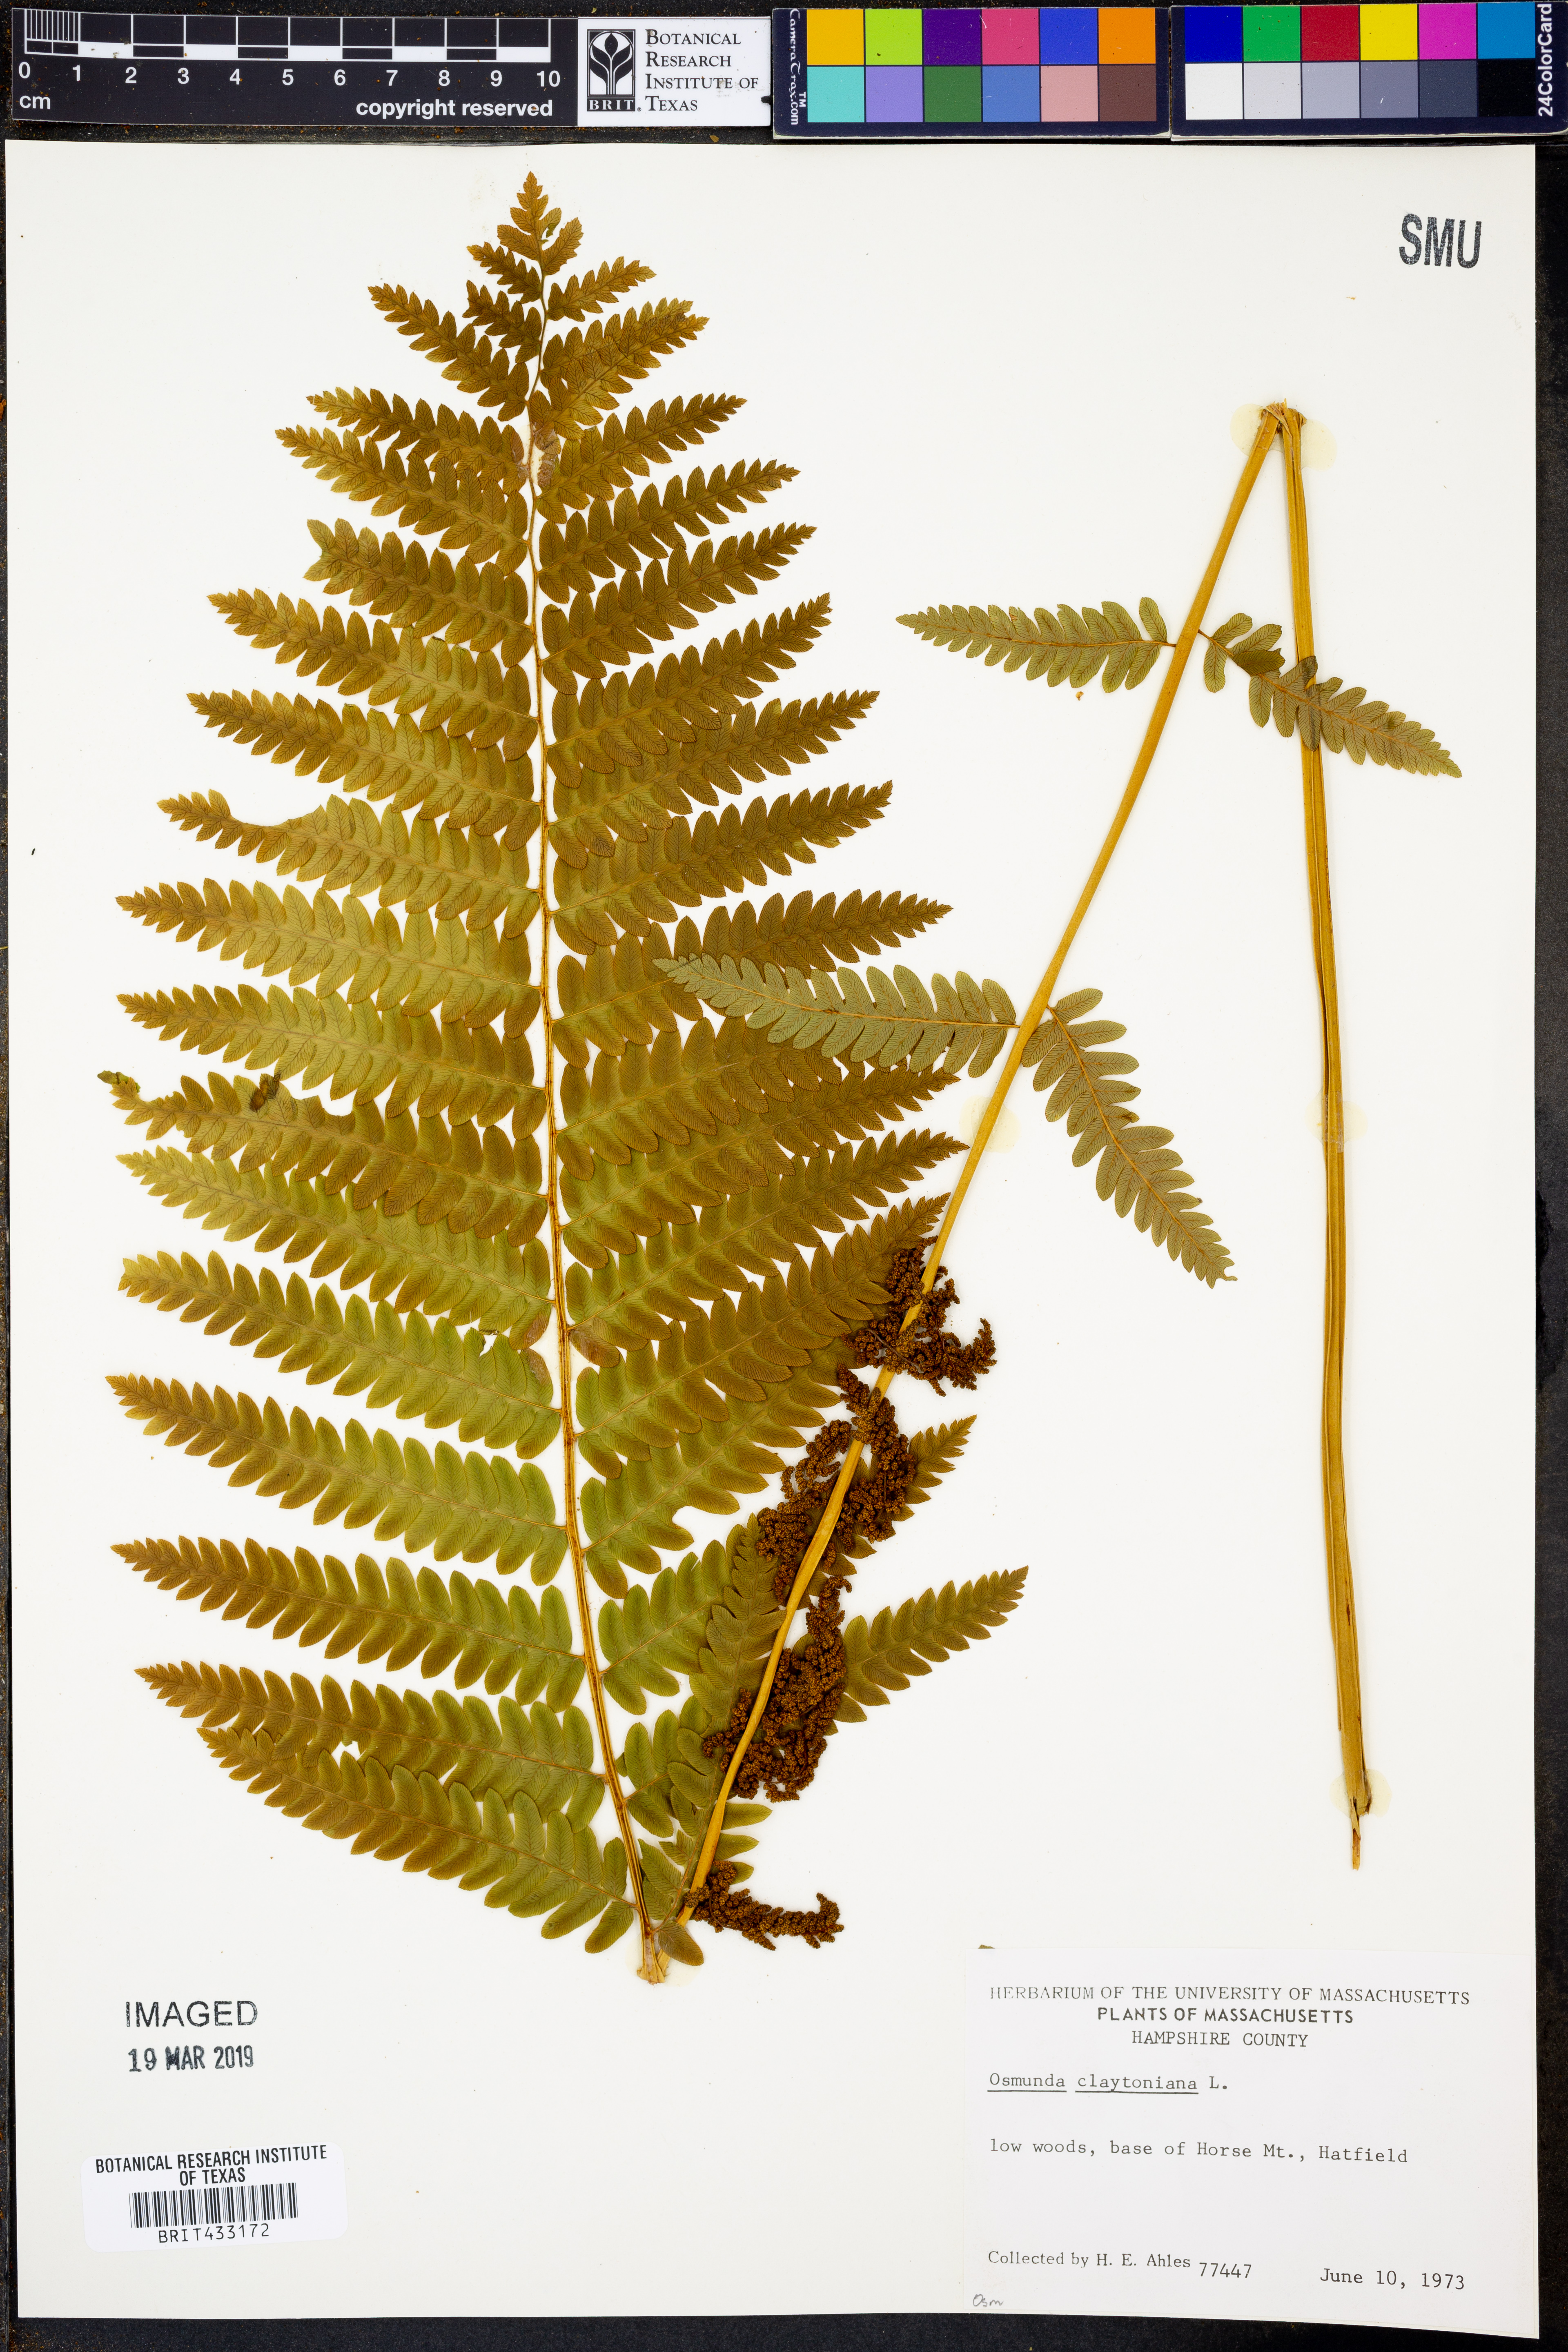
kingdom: Plantae
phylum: Tracheophyta
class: Polypodiopsida
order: Osmundales
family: Osmundaceae
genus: Claytosmunda
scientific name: Claytosmunda claytoniana
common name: Clayton's fern
